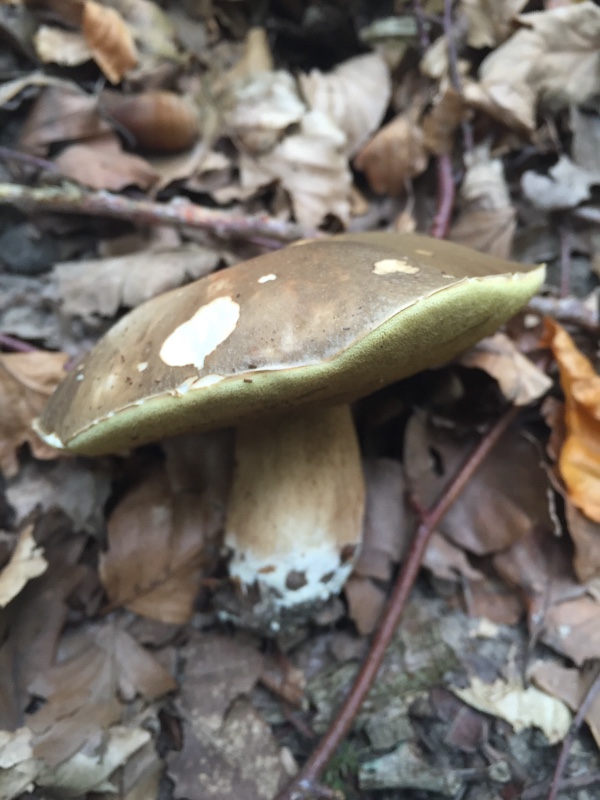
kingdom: Fungi
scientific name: Fungi
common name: bronze-rørhat
